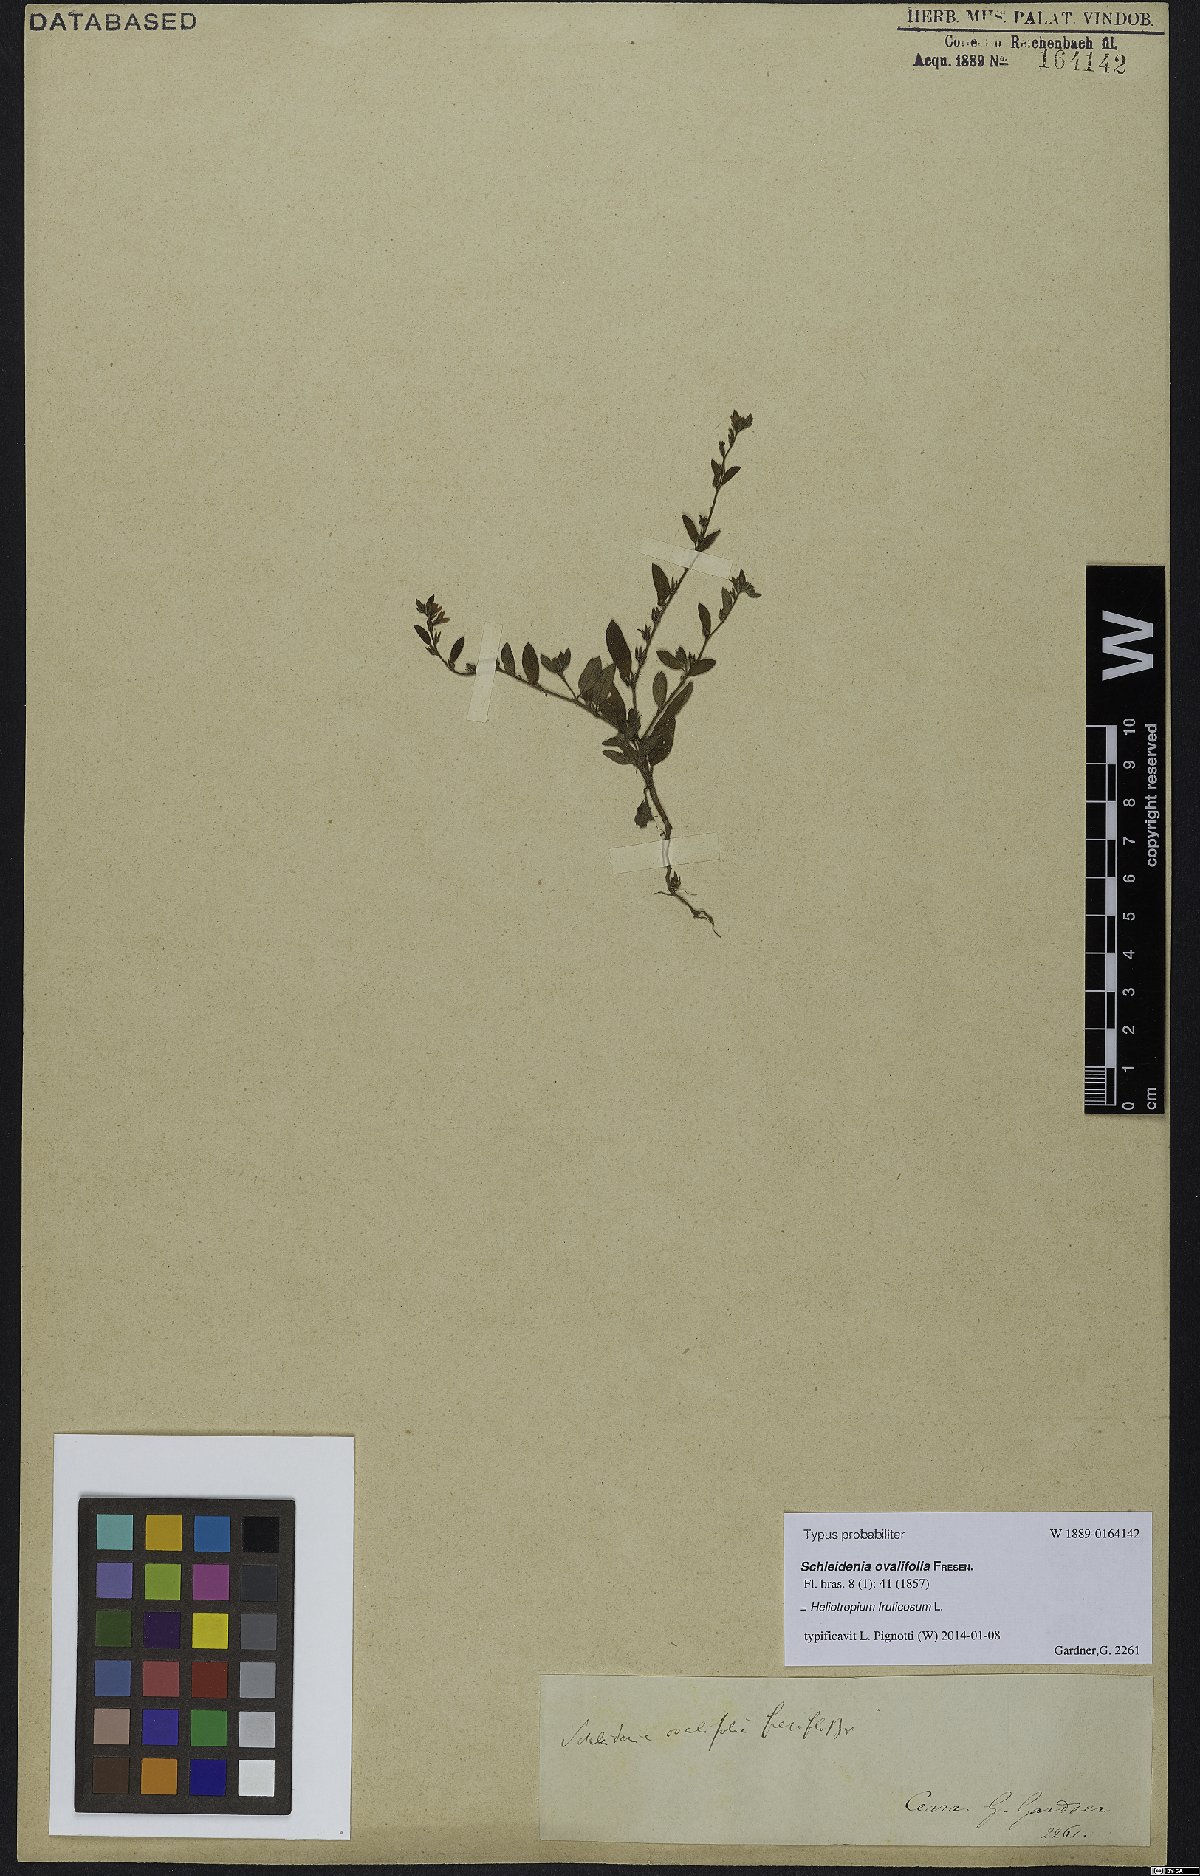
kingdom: Plantae
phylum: Tracheophyta
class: Magnoliopsida
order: Boraginales
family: Heliotropiaceae
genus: Euploca
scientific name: Euploca fruticosa
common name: Key west heliotrope
